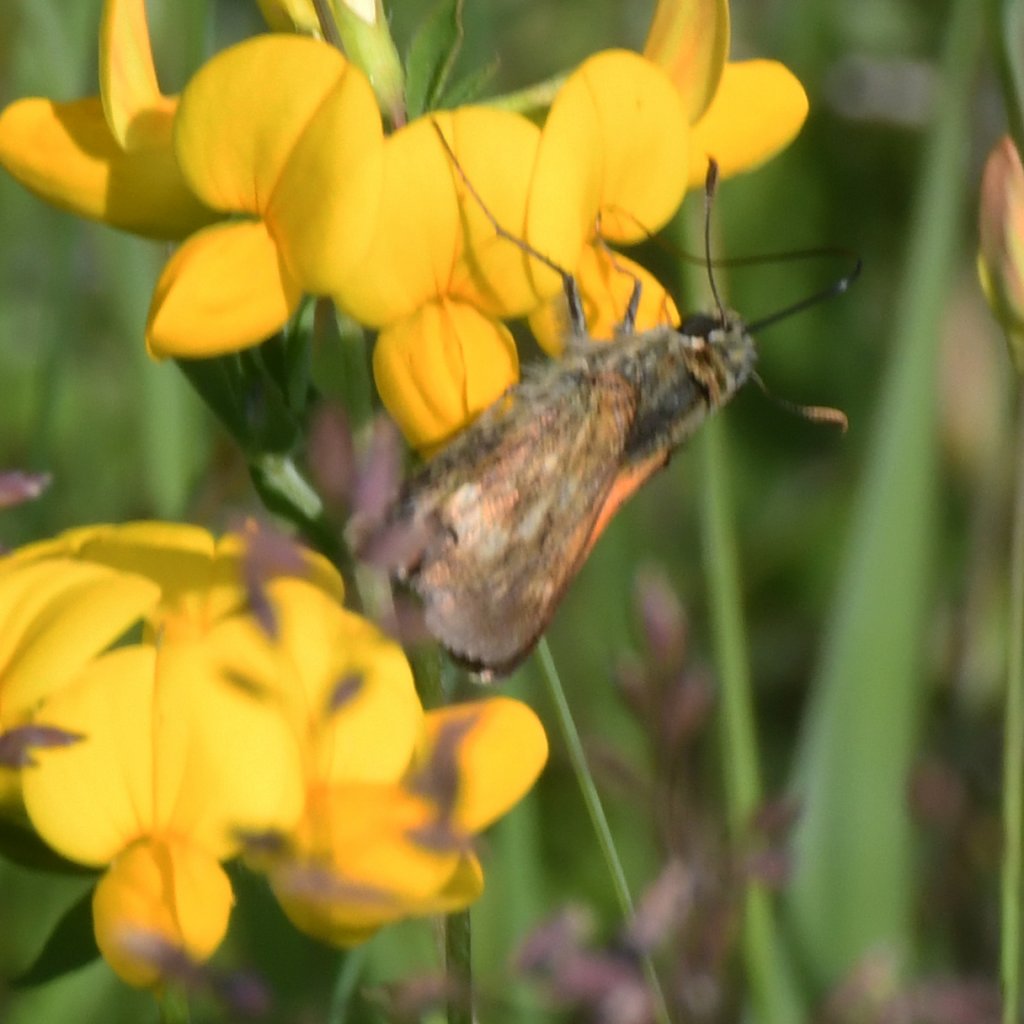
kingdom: Animalia
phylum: Arthropoda
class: Insecta
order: Lepidoptera
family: Hesperiidae
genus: Polites
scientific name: Polites
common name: Long Dash Skipper
